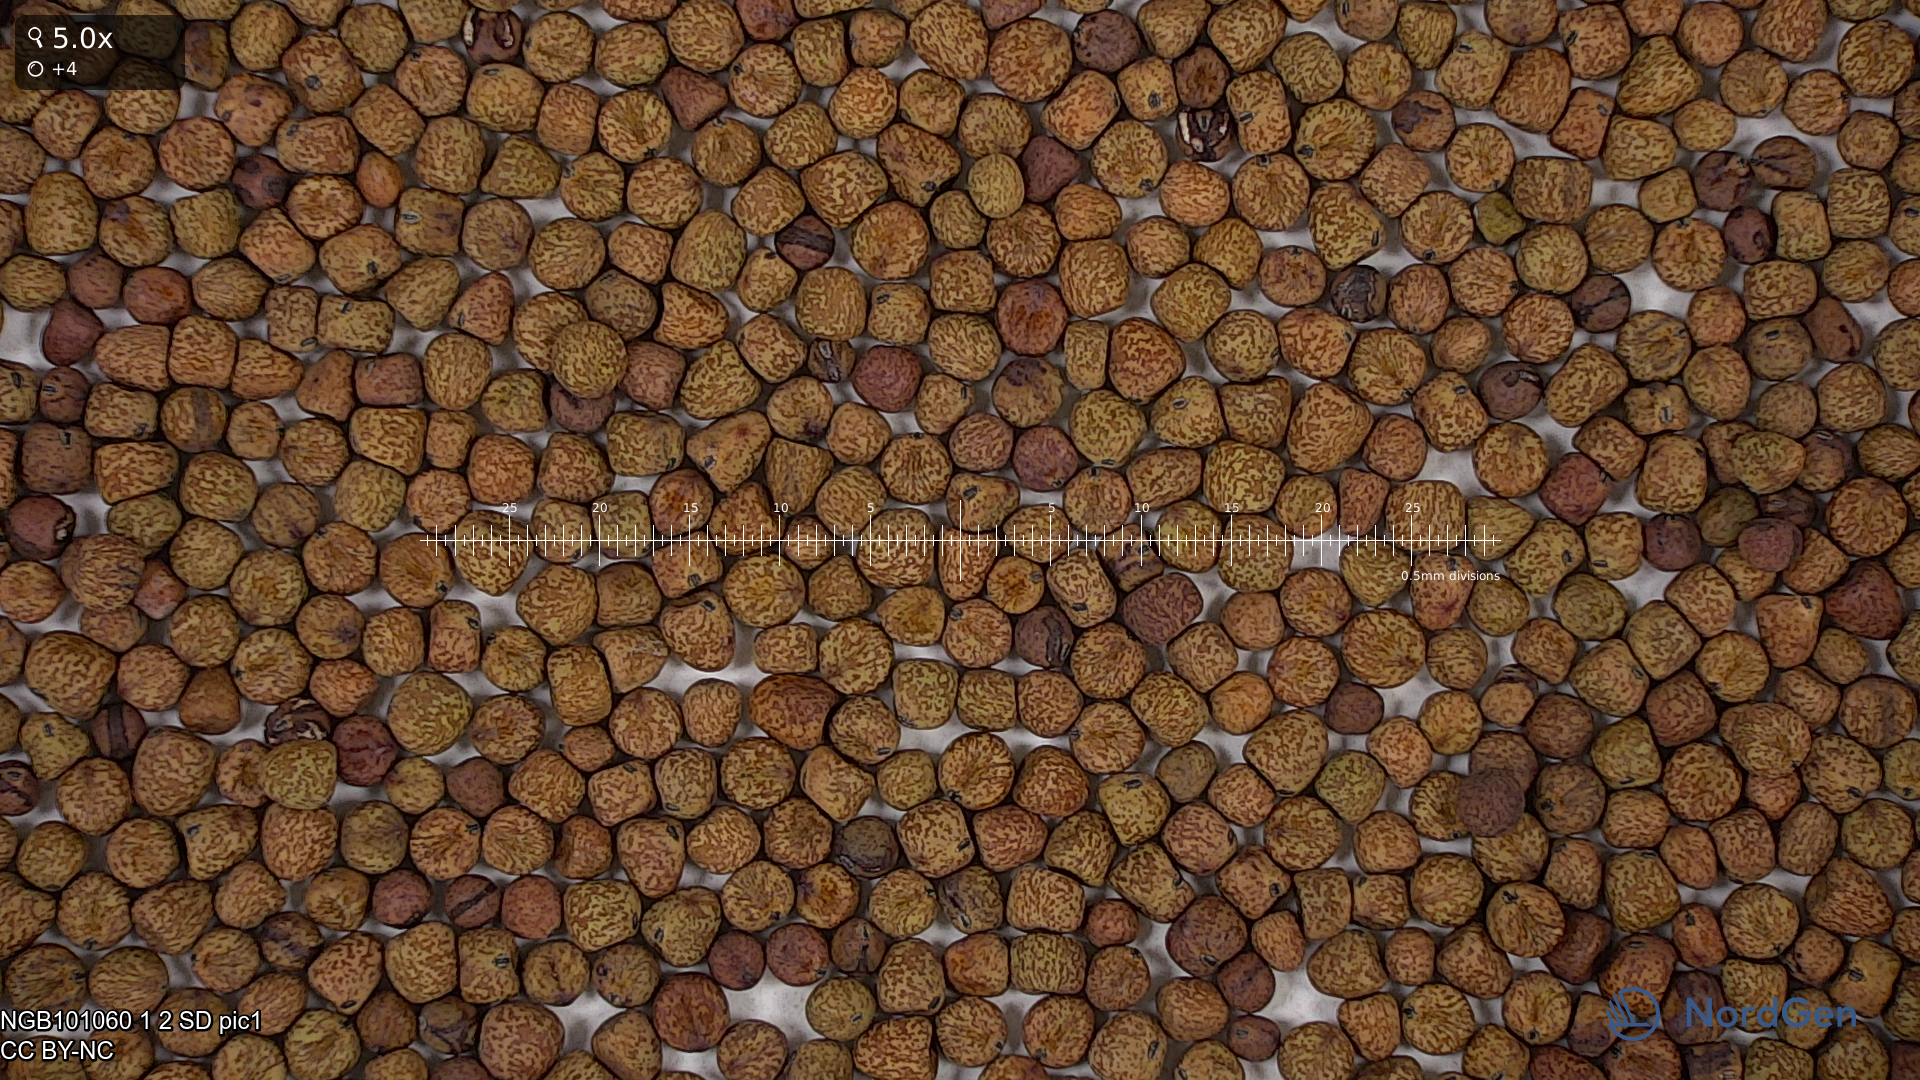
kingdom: Plantae
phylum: Tracheophyta
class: Magnoliopsida
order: Fabales
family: Fabaceae
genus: Lathyrus
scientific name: Lathyrus oleraceus
